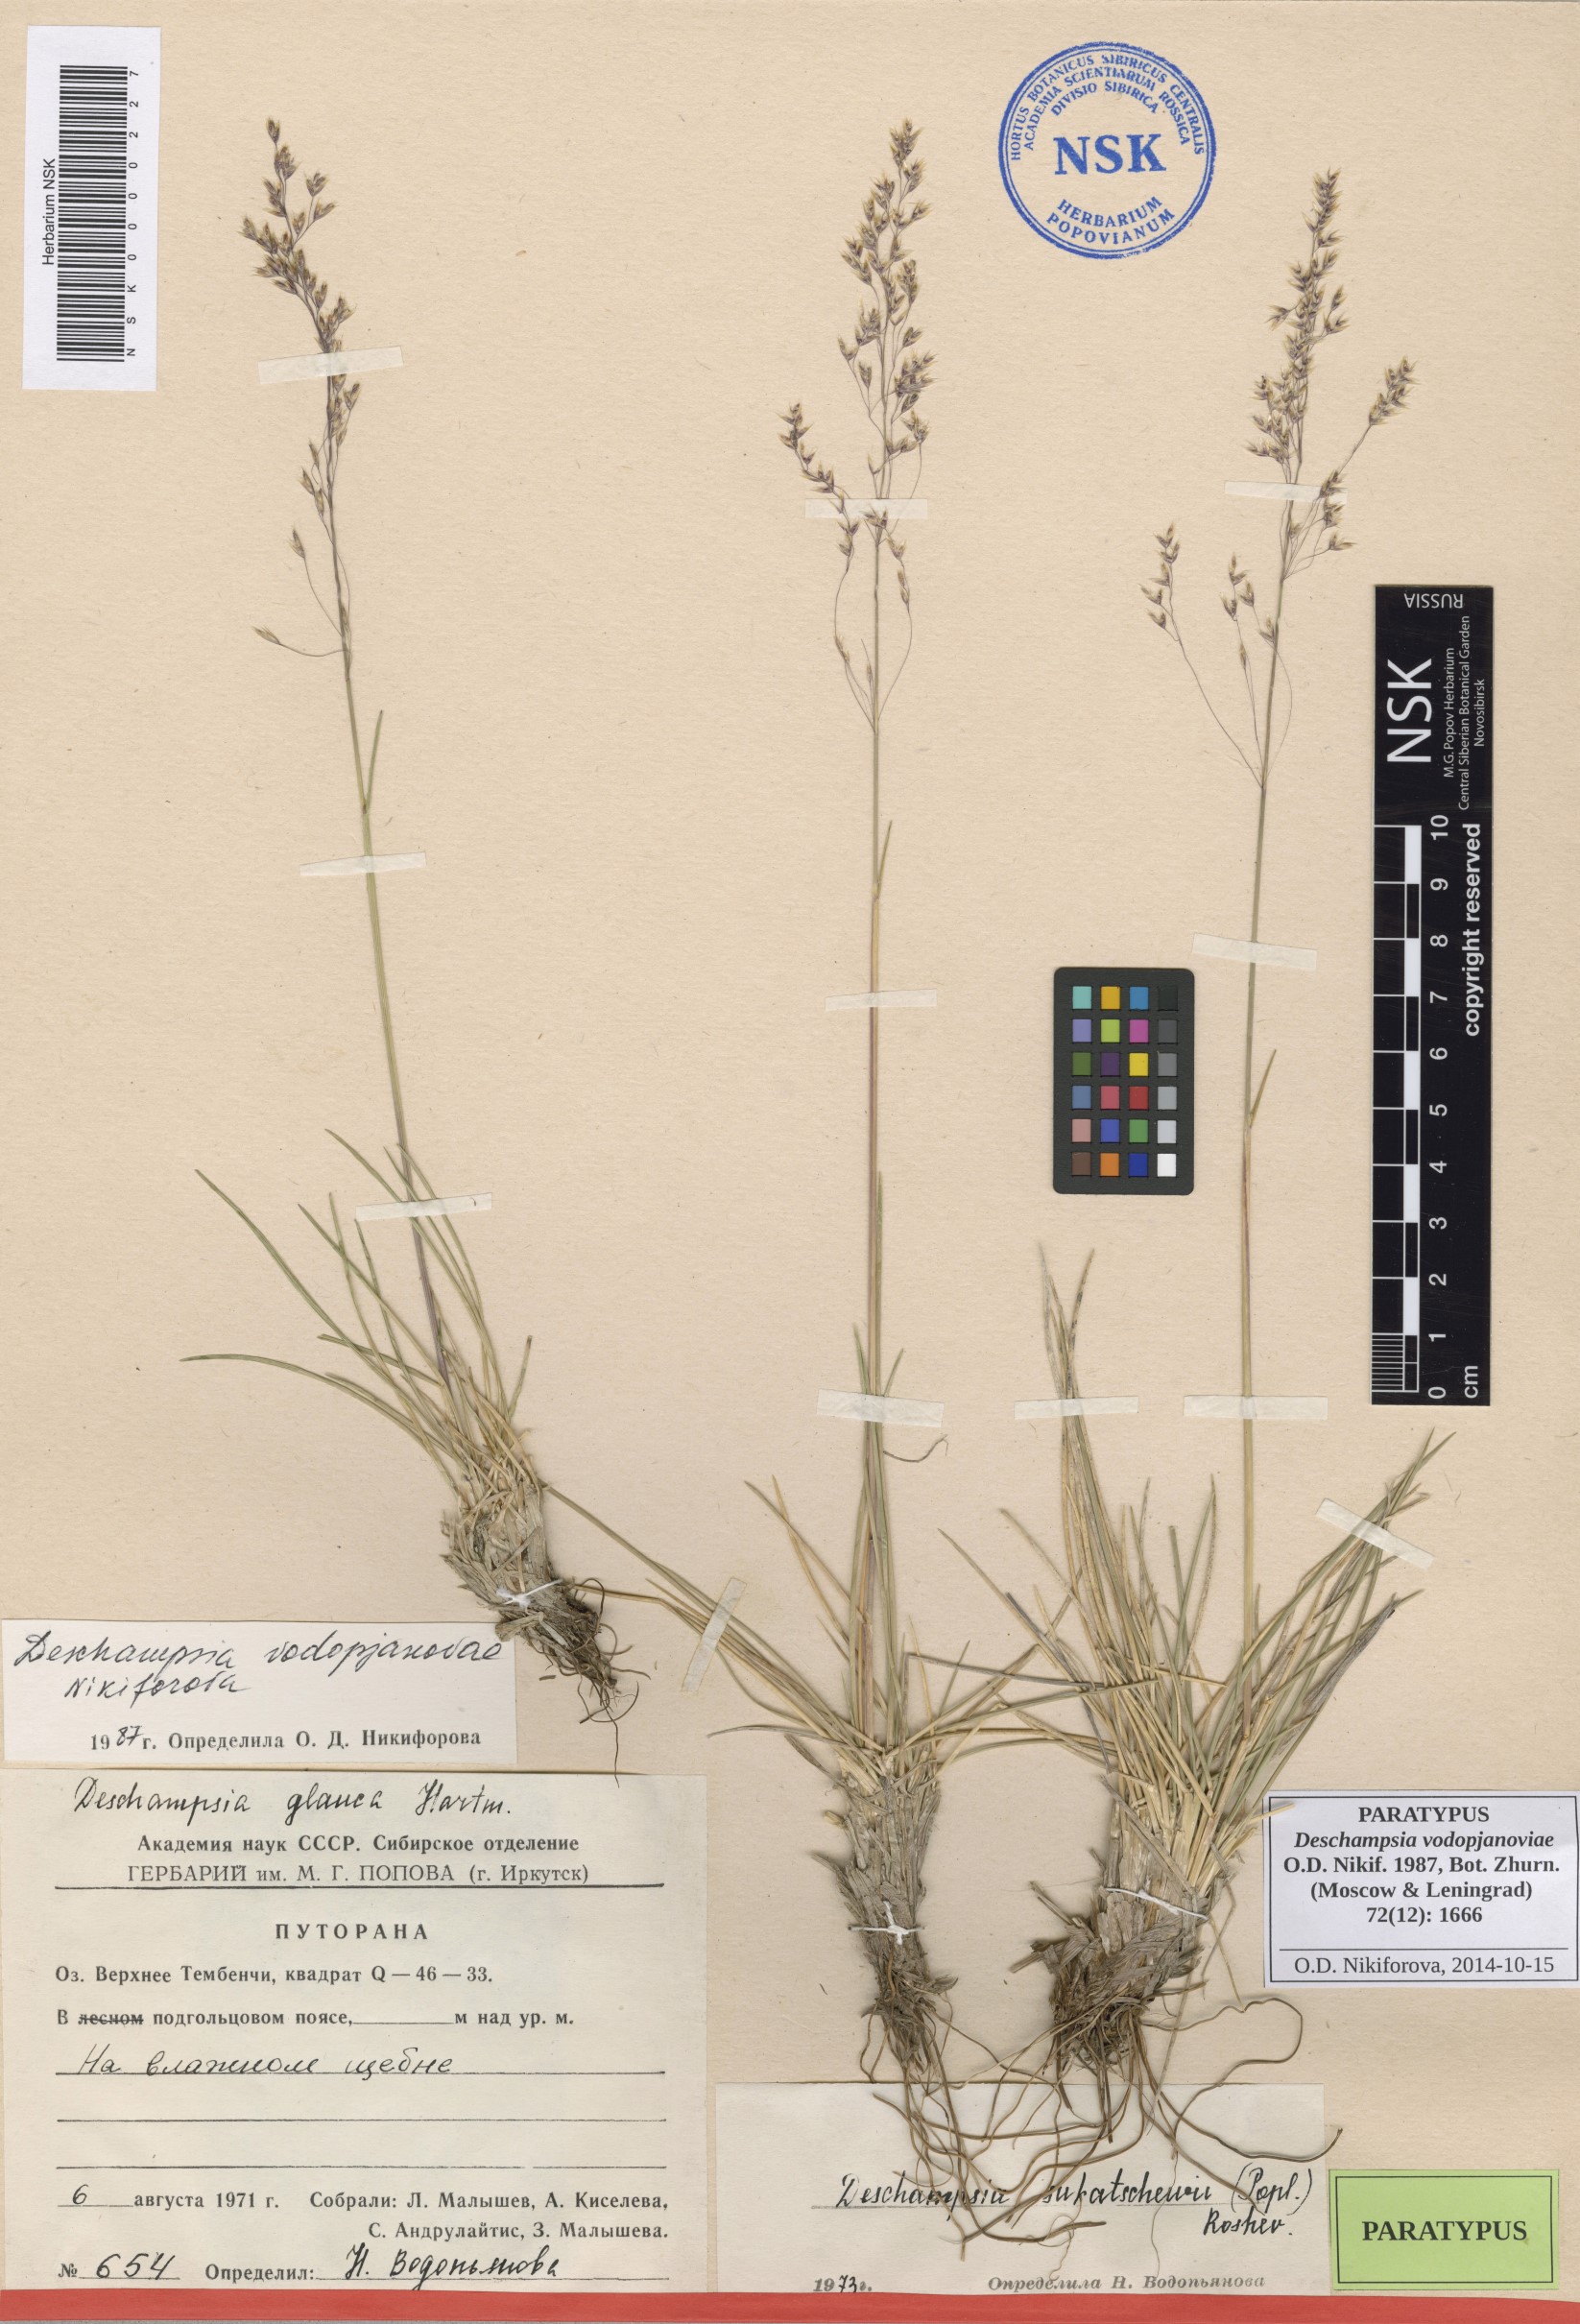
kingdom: Plantae
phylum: Tracheophyta
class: Liliopsida
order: Poales
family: Poaceae
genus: Deschampsia
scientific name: Deschampsia cespitosa
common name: Tufted hair-grass
